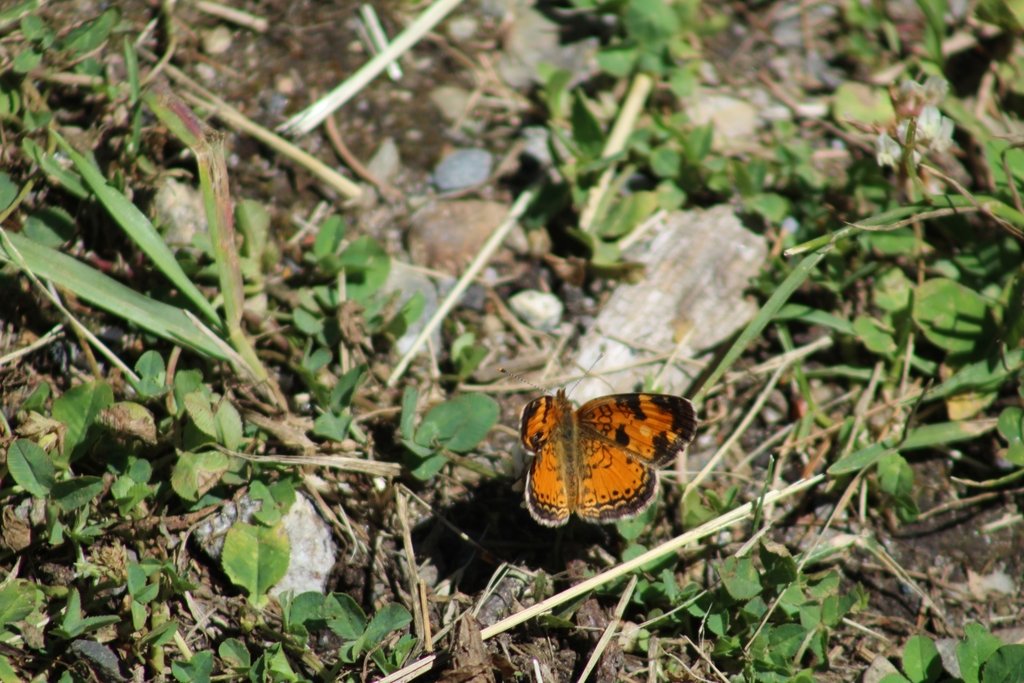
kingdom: Animalia
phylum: Arthropoda
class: Insecta
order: Lepidoptera
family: Nymphalidae
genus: Phyciodes
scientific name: Phyciodes tharos
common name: Northern Crescent
